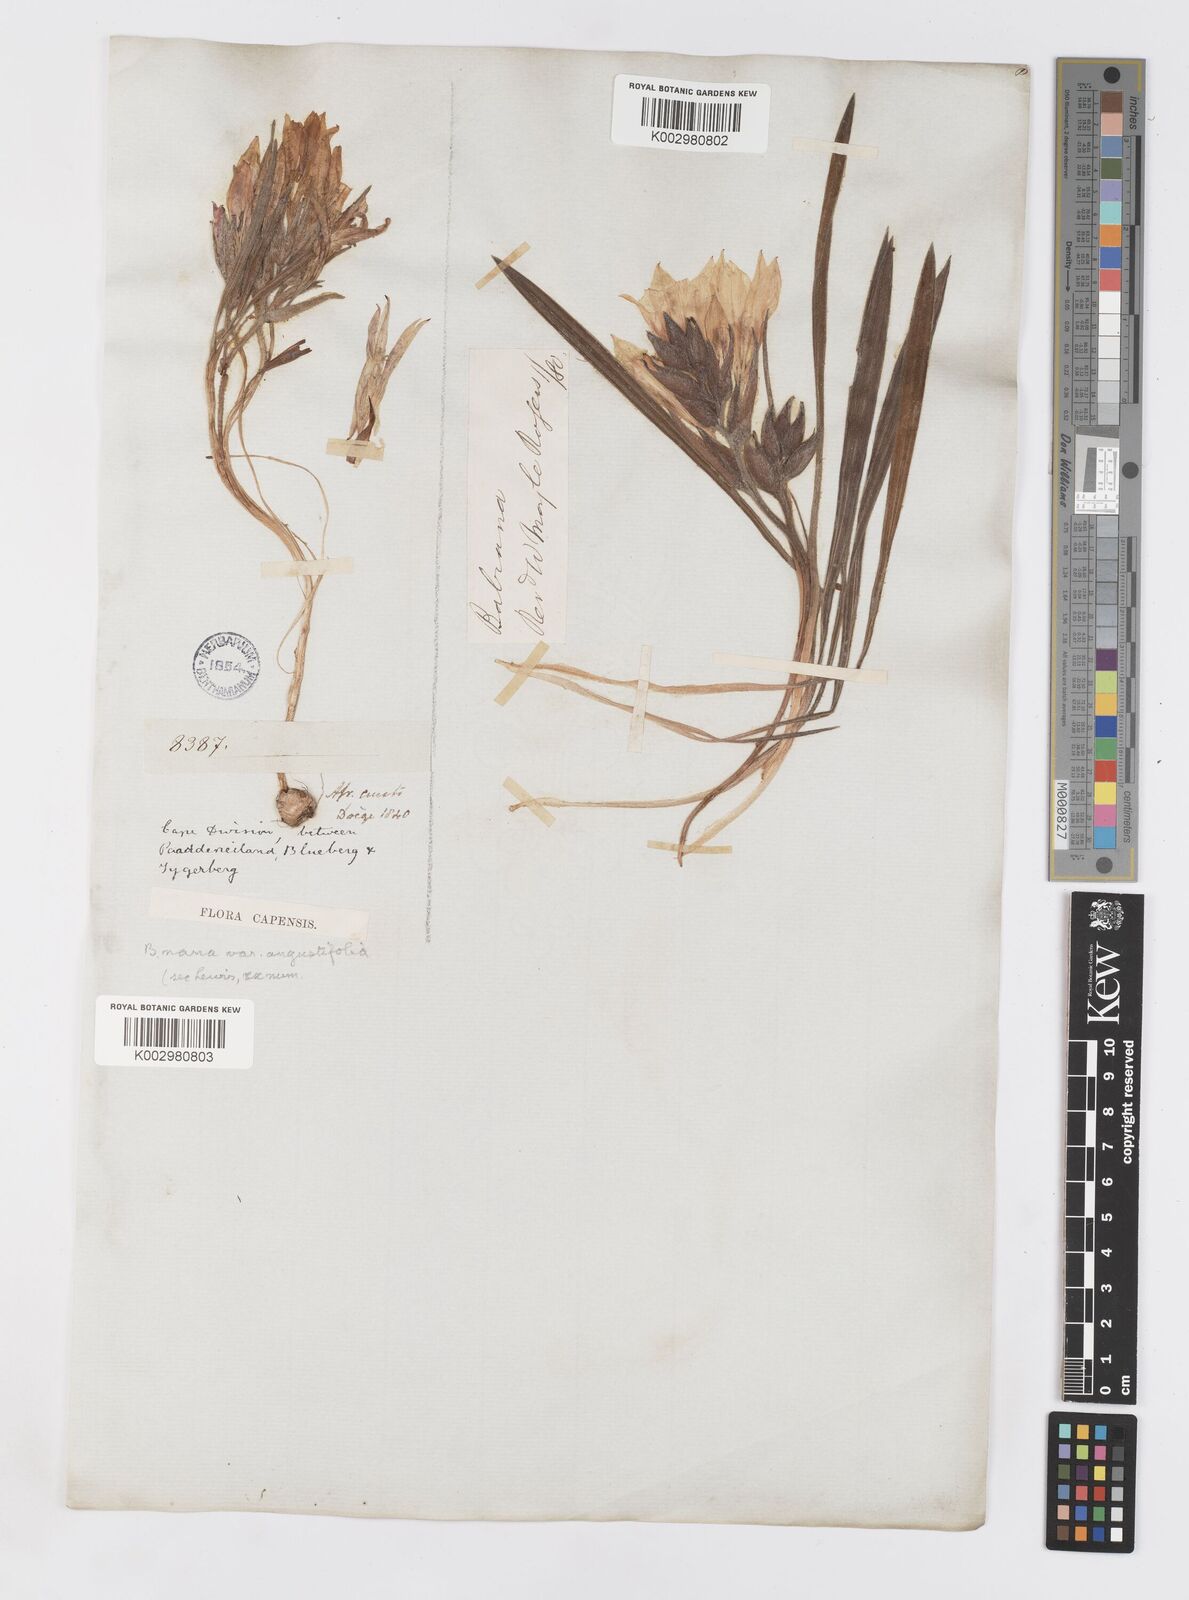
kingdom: Plantae
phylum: Tracheophyta
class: Liliopsida
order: Asparagales
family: Iridaceae
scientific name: Iridaceae
